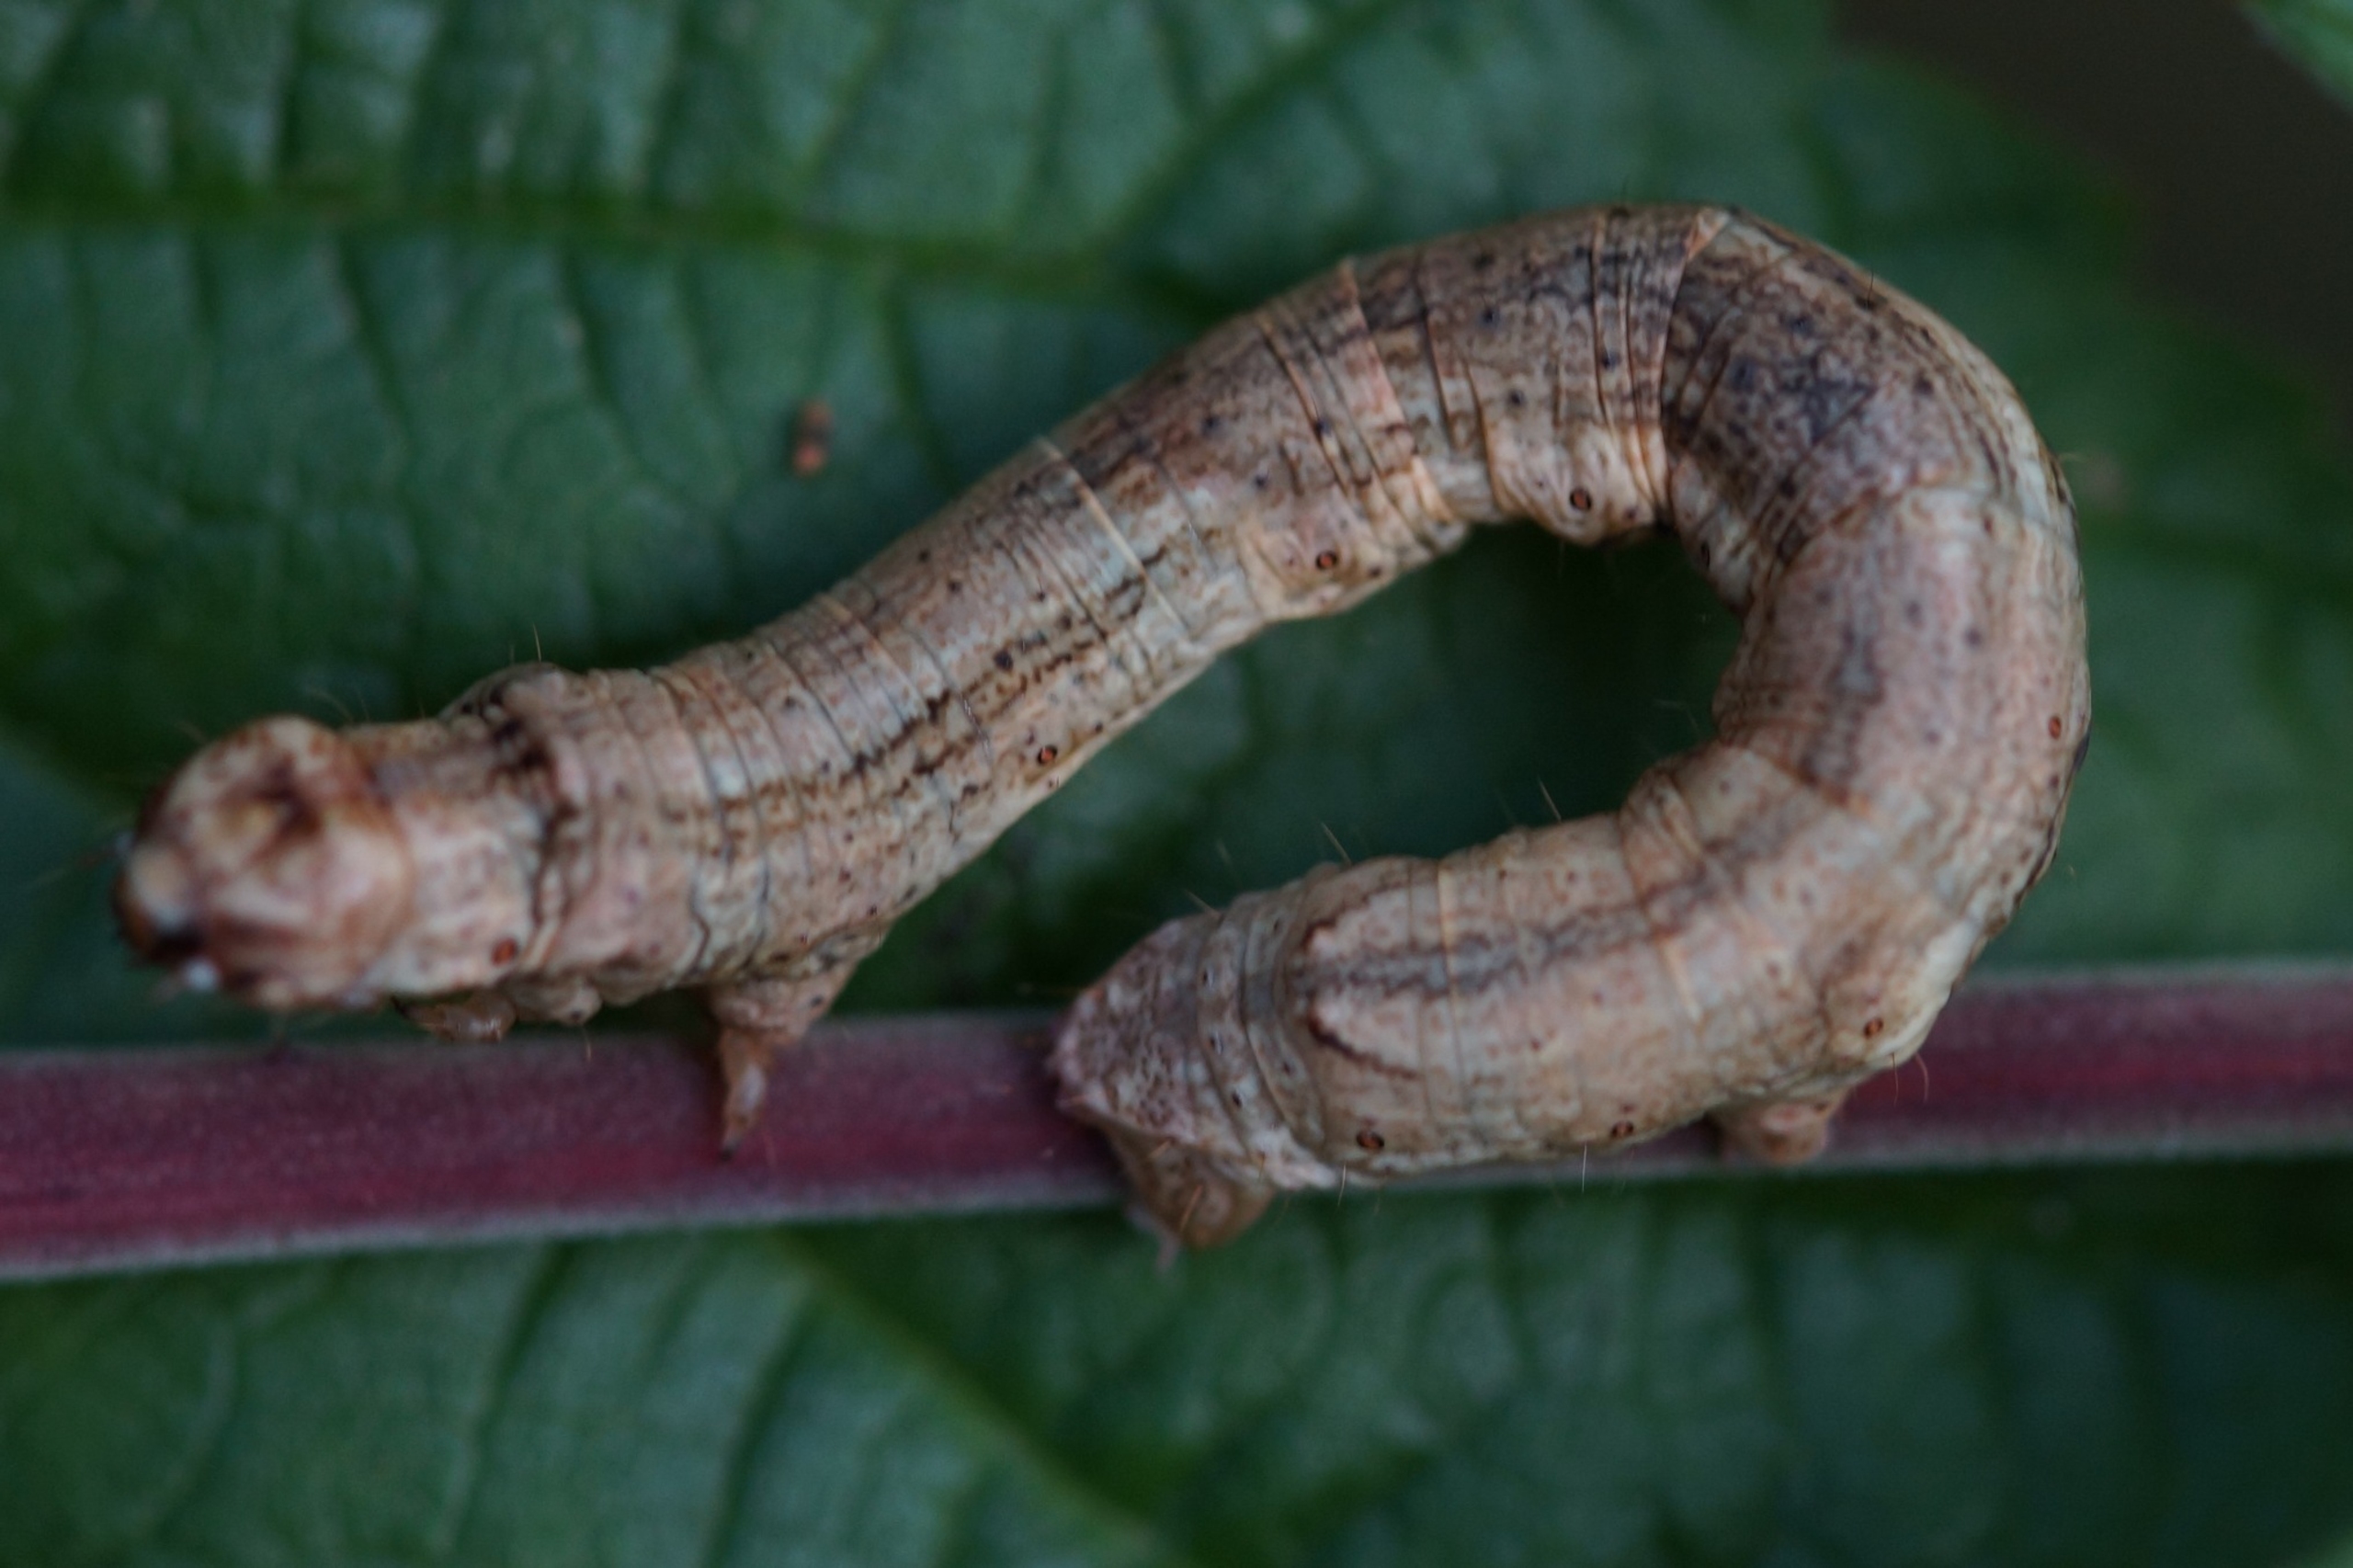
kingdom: Animalia
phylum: Arthropoda
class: Insecta
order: Lepidoptera
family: Geometridae
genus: Ectropis
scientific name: Ectropis crepuscularia
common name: Birke-barkmåler
